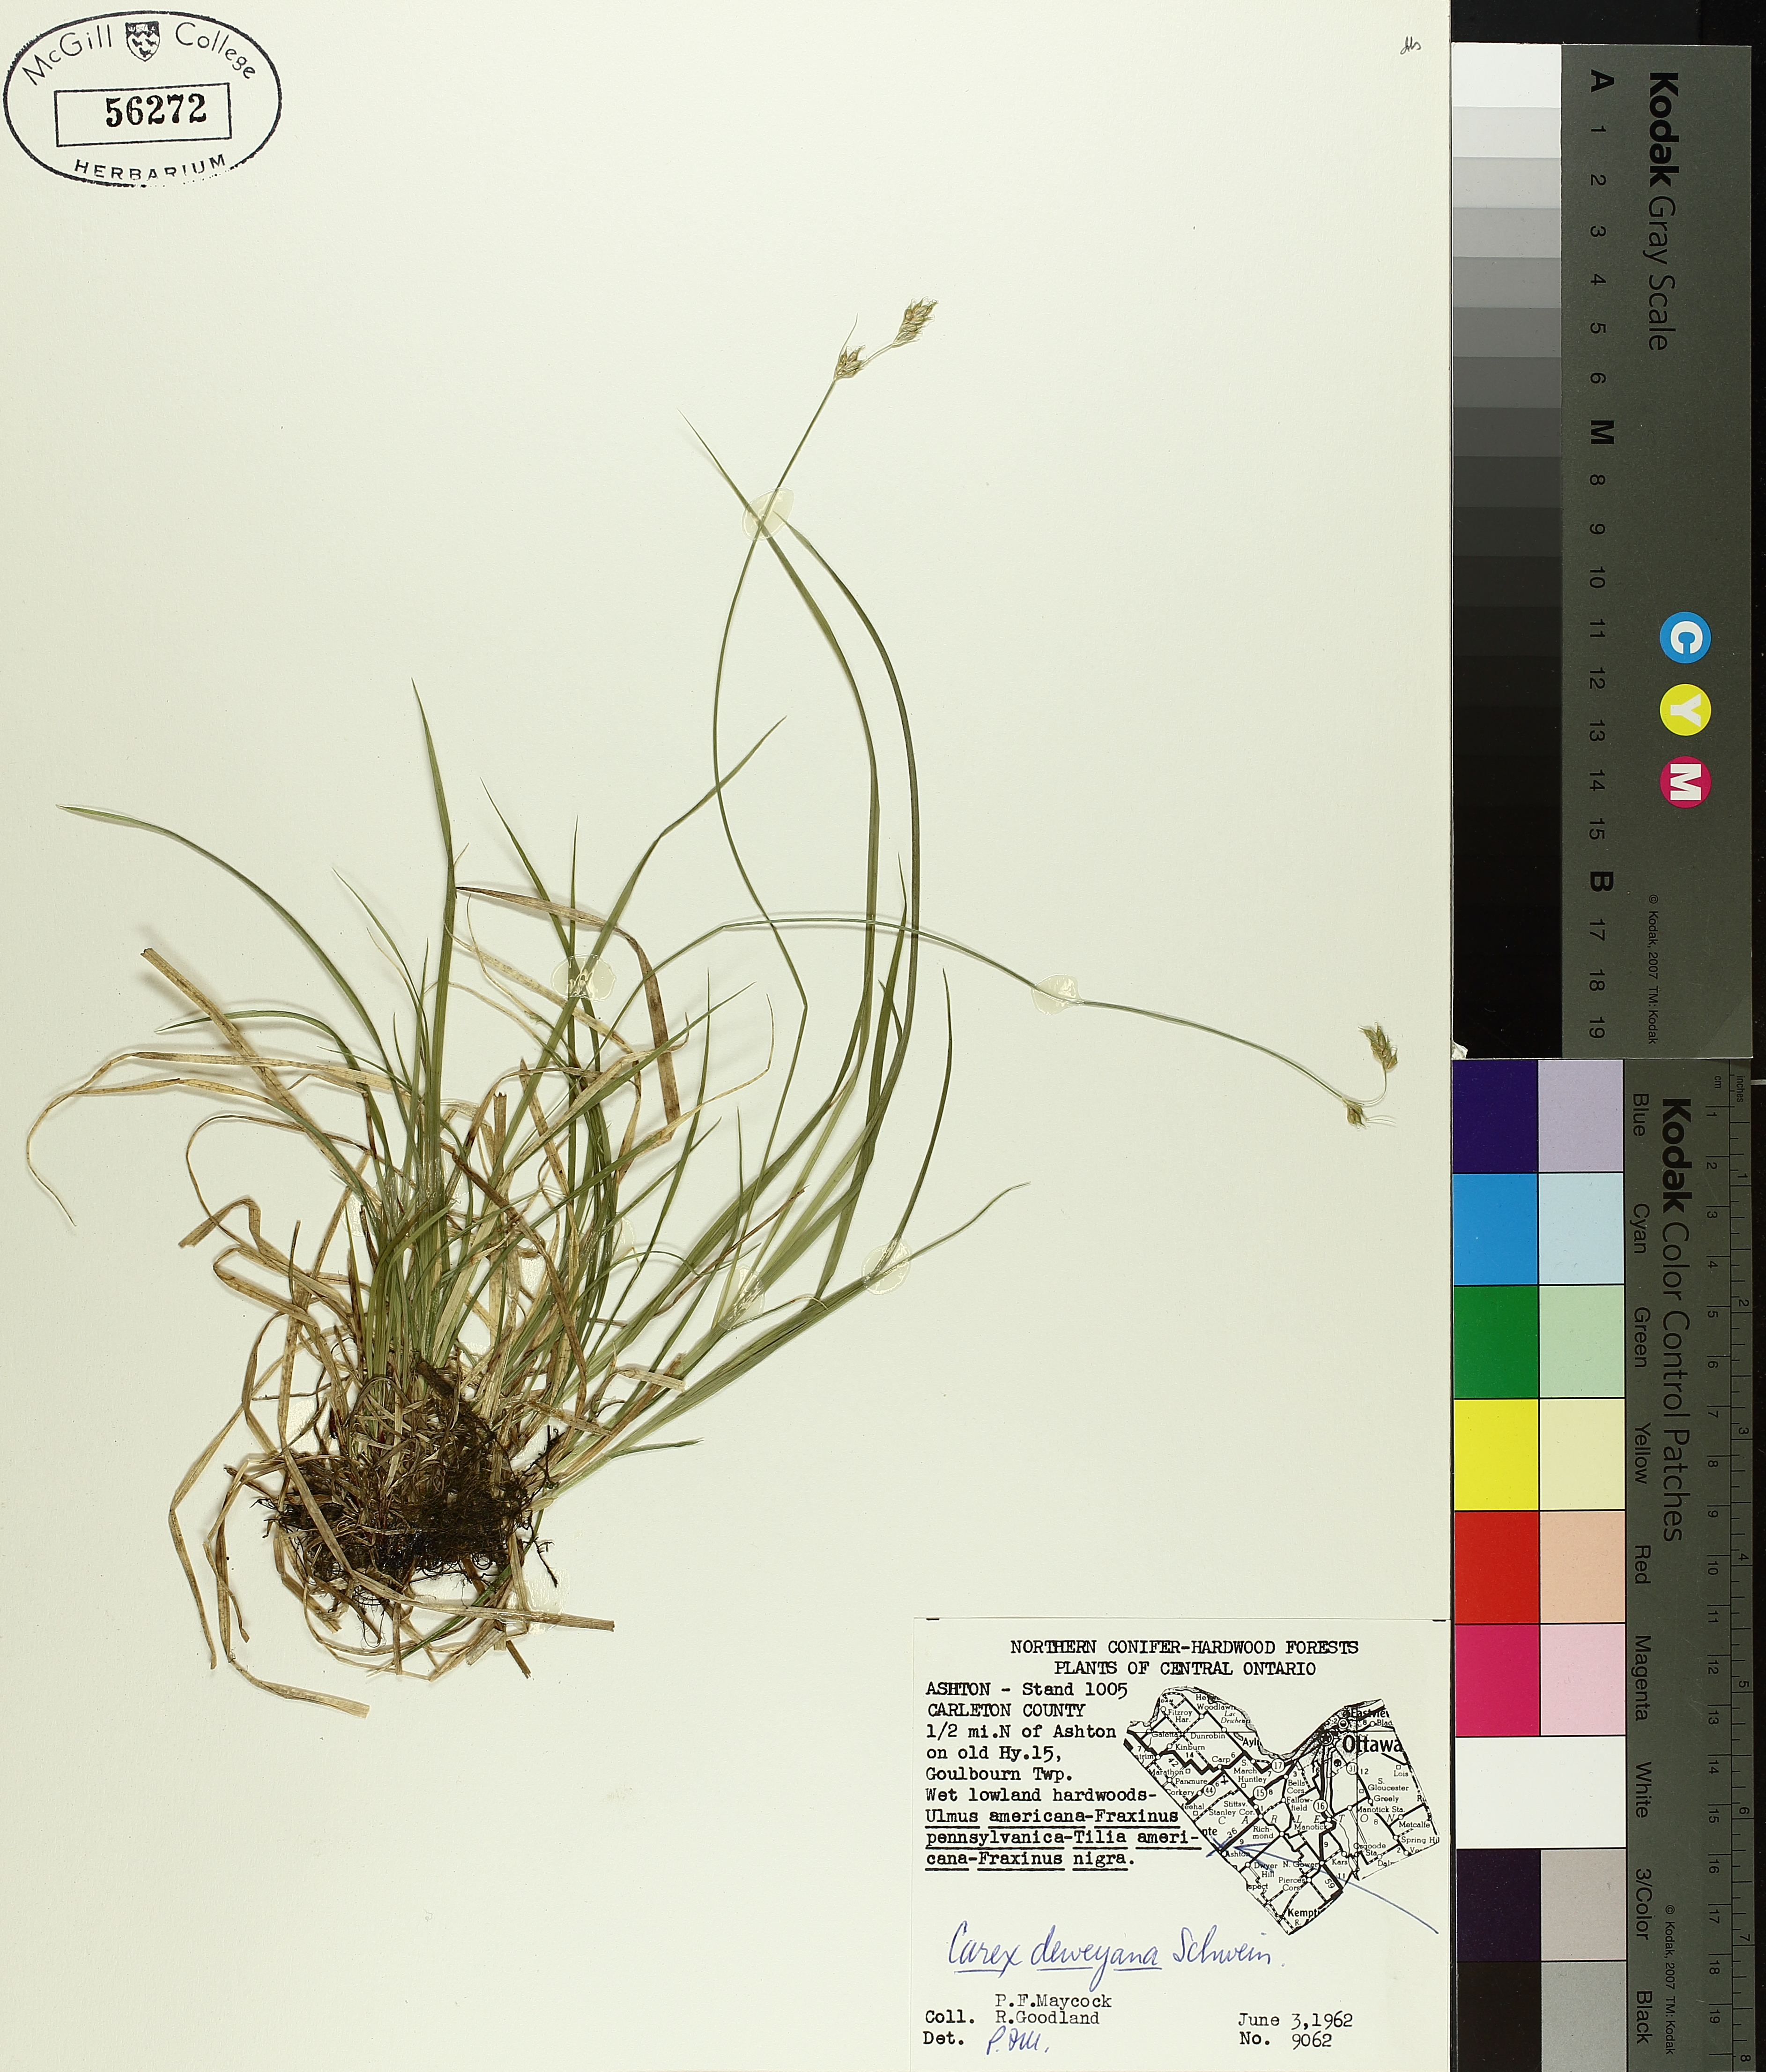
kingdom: Plantae
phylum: Tracheophyta
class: Liliopsida
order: Poales
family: Cyperaceae
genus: Carex
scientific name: Carex deweyana
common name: Dewey's sedge
